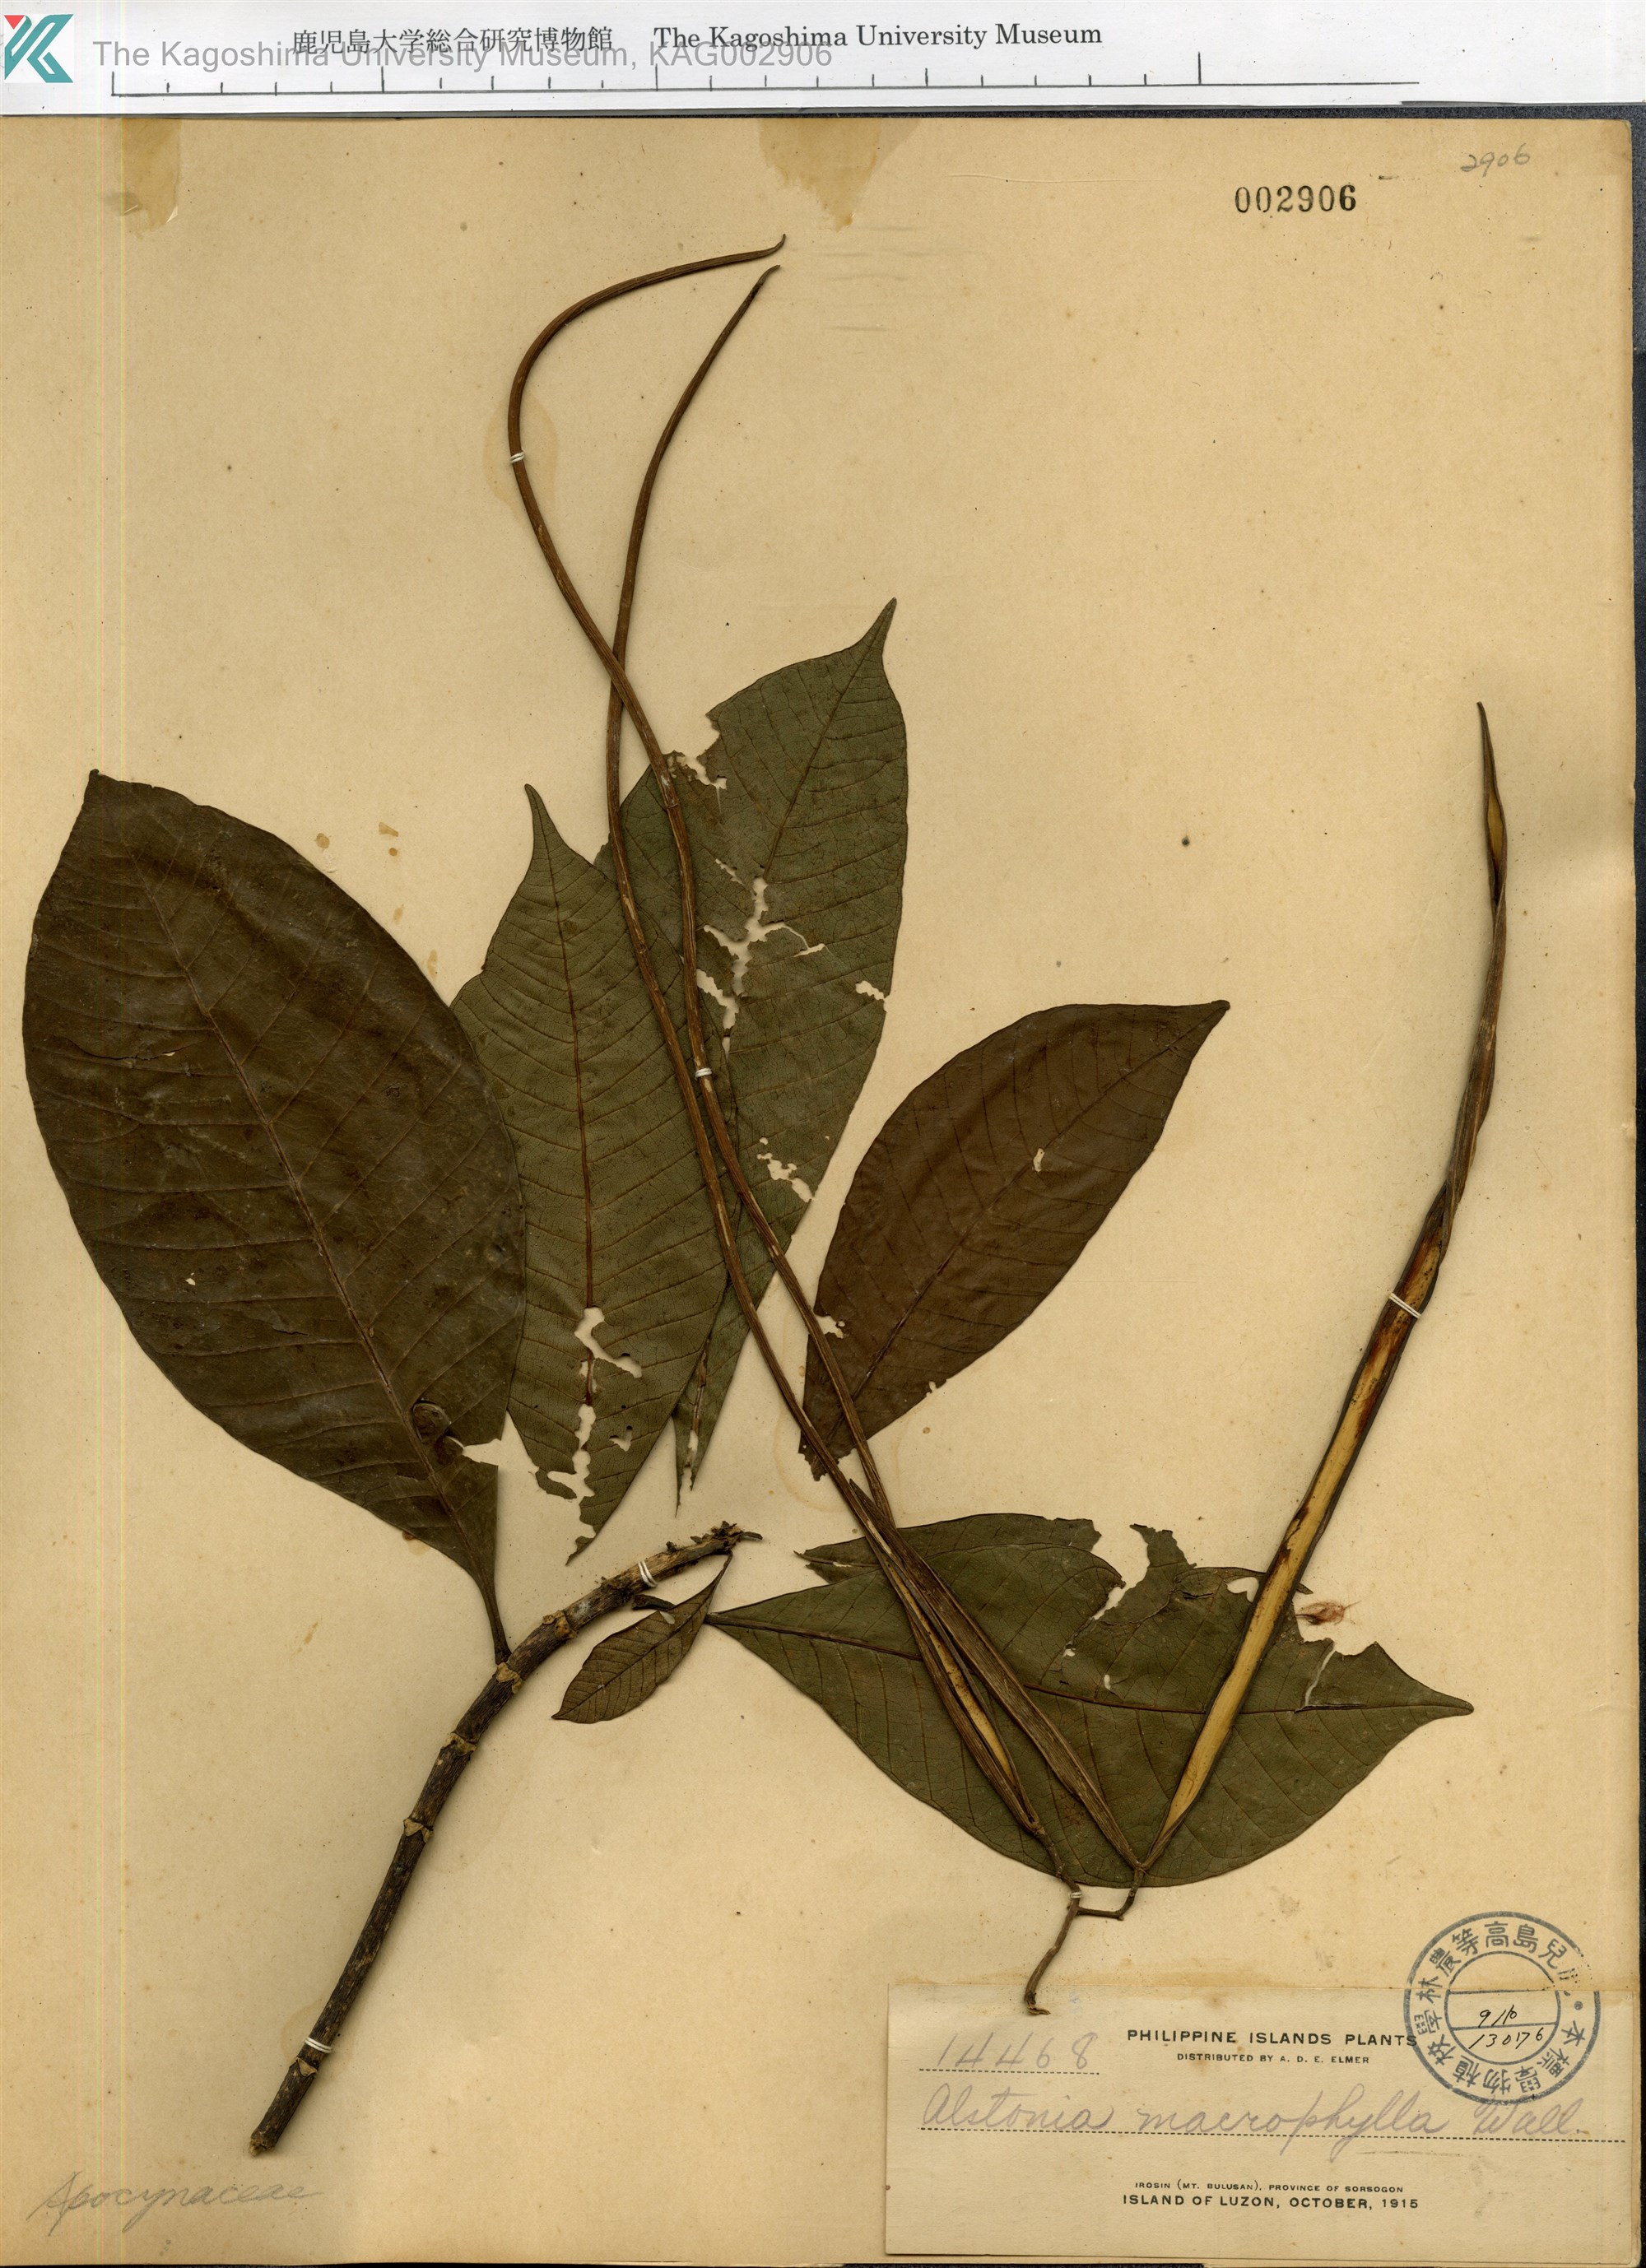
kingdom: Plantae
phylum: Tracheophyta
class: Magnoliopsida
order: Gentianales
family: Apocynaceae
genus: Alstonia
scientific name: Alstonia macrophylla
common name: Deviltree
